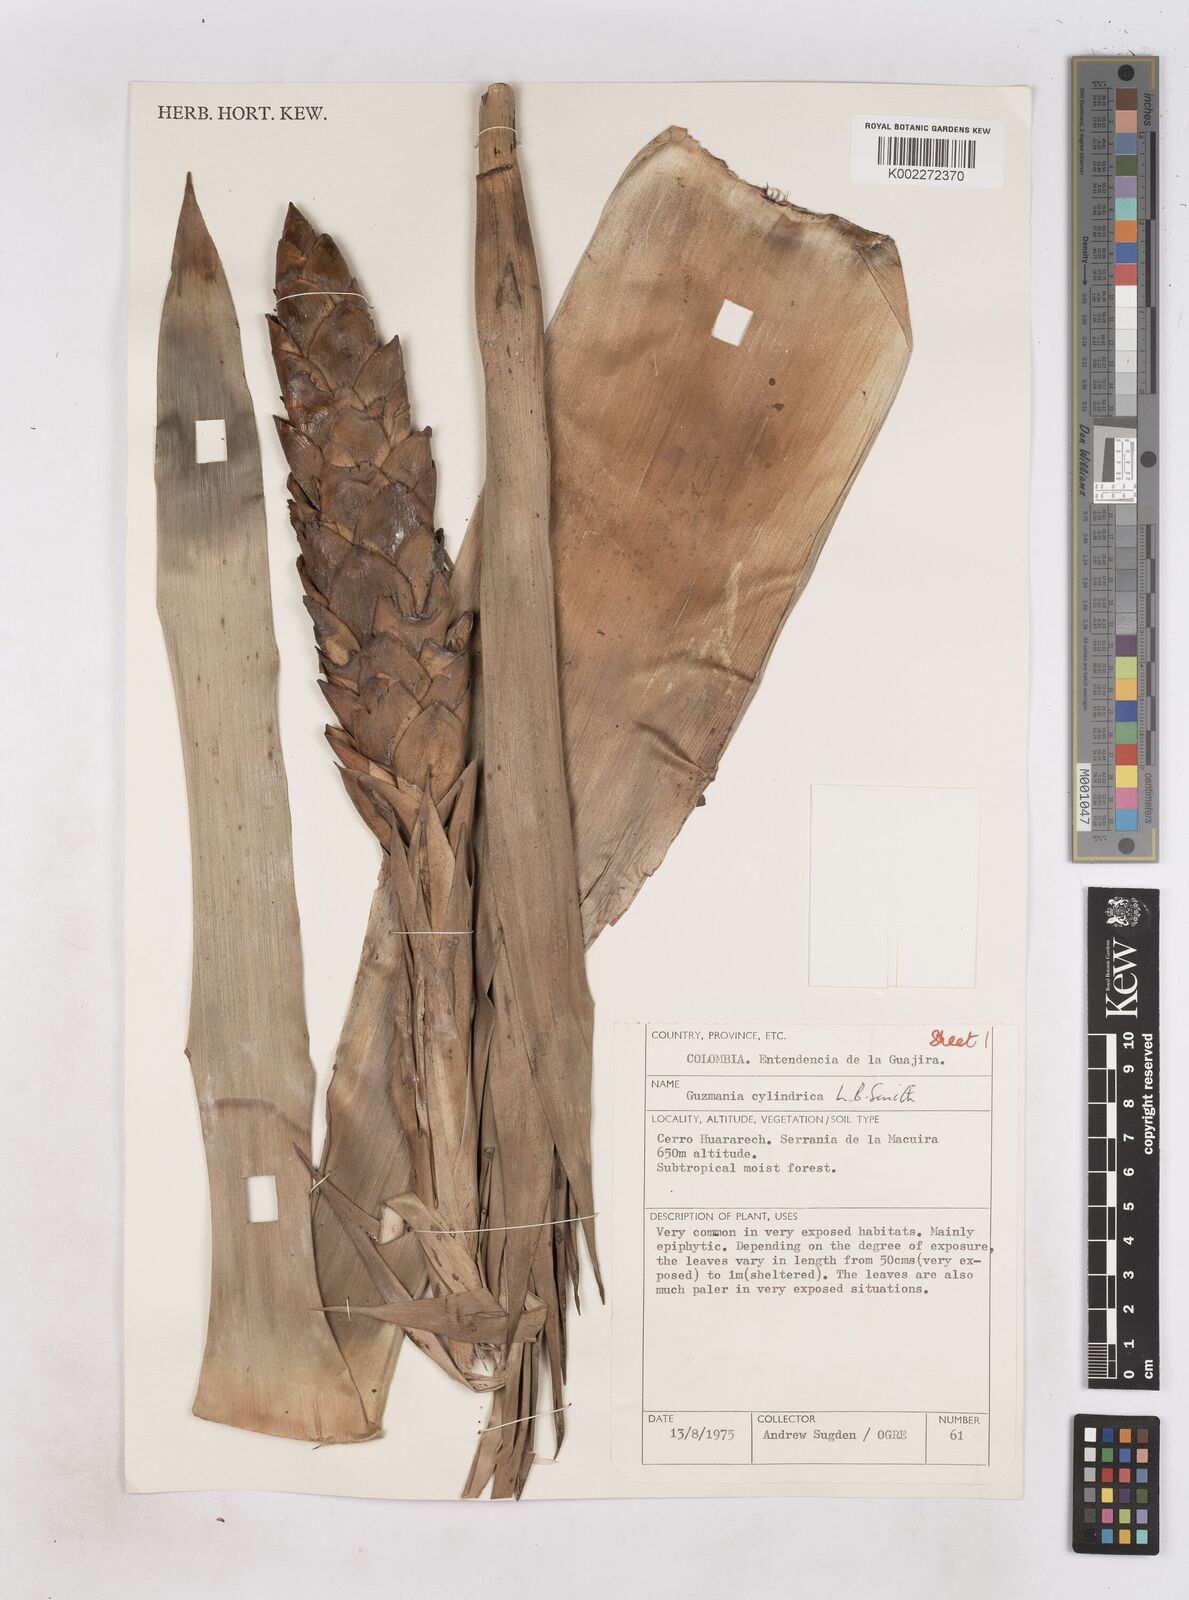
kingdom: Plantae
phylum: Tracheophyta
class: Liliopsida
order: Poales
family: Bromeliaceae
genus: Guzmania
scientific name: Guzmania cylindrica
